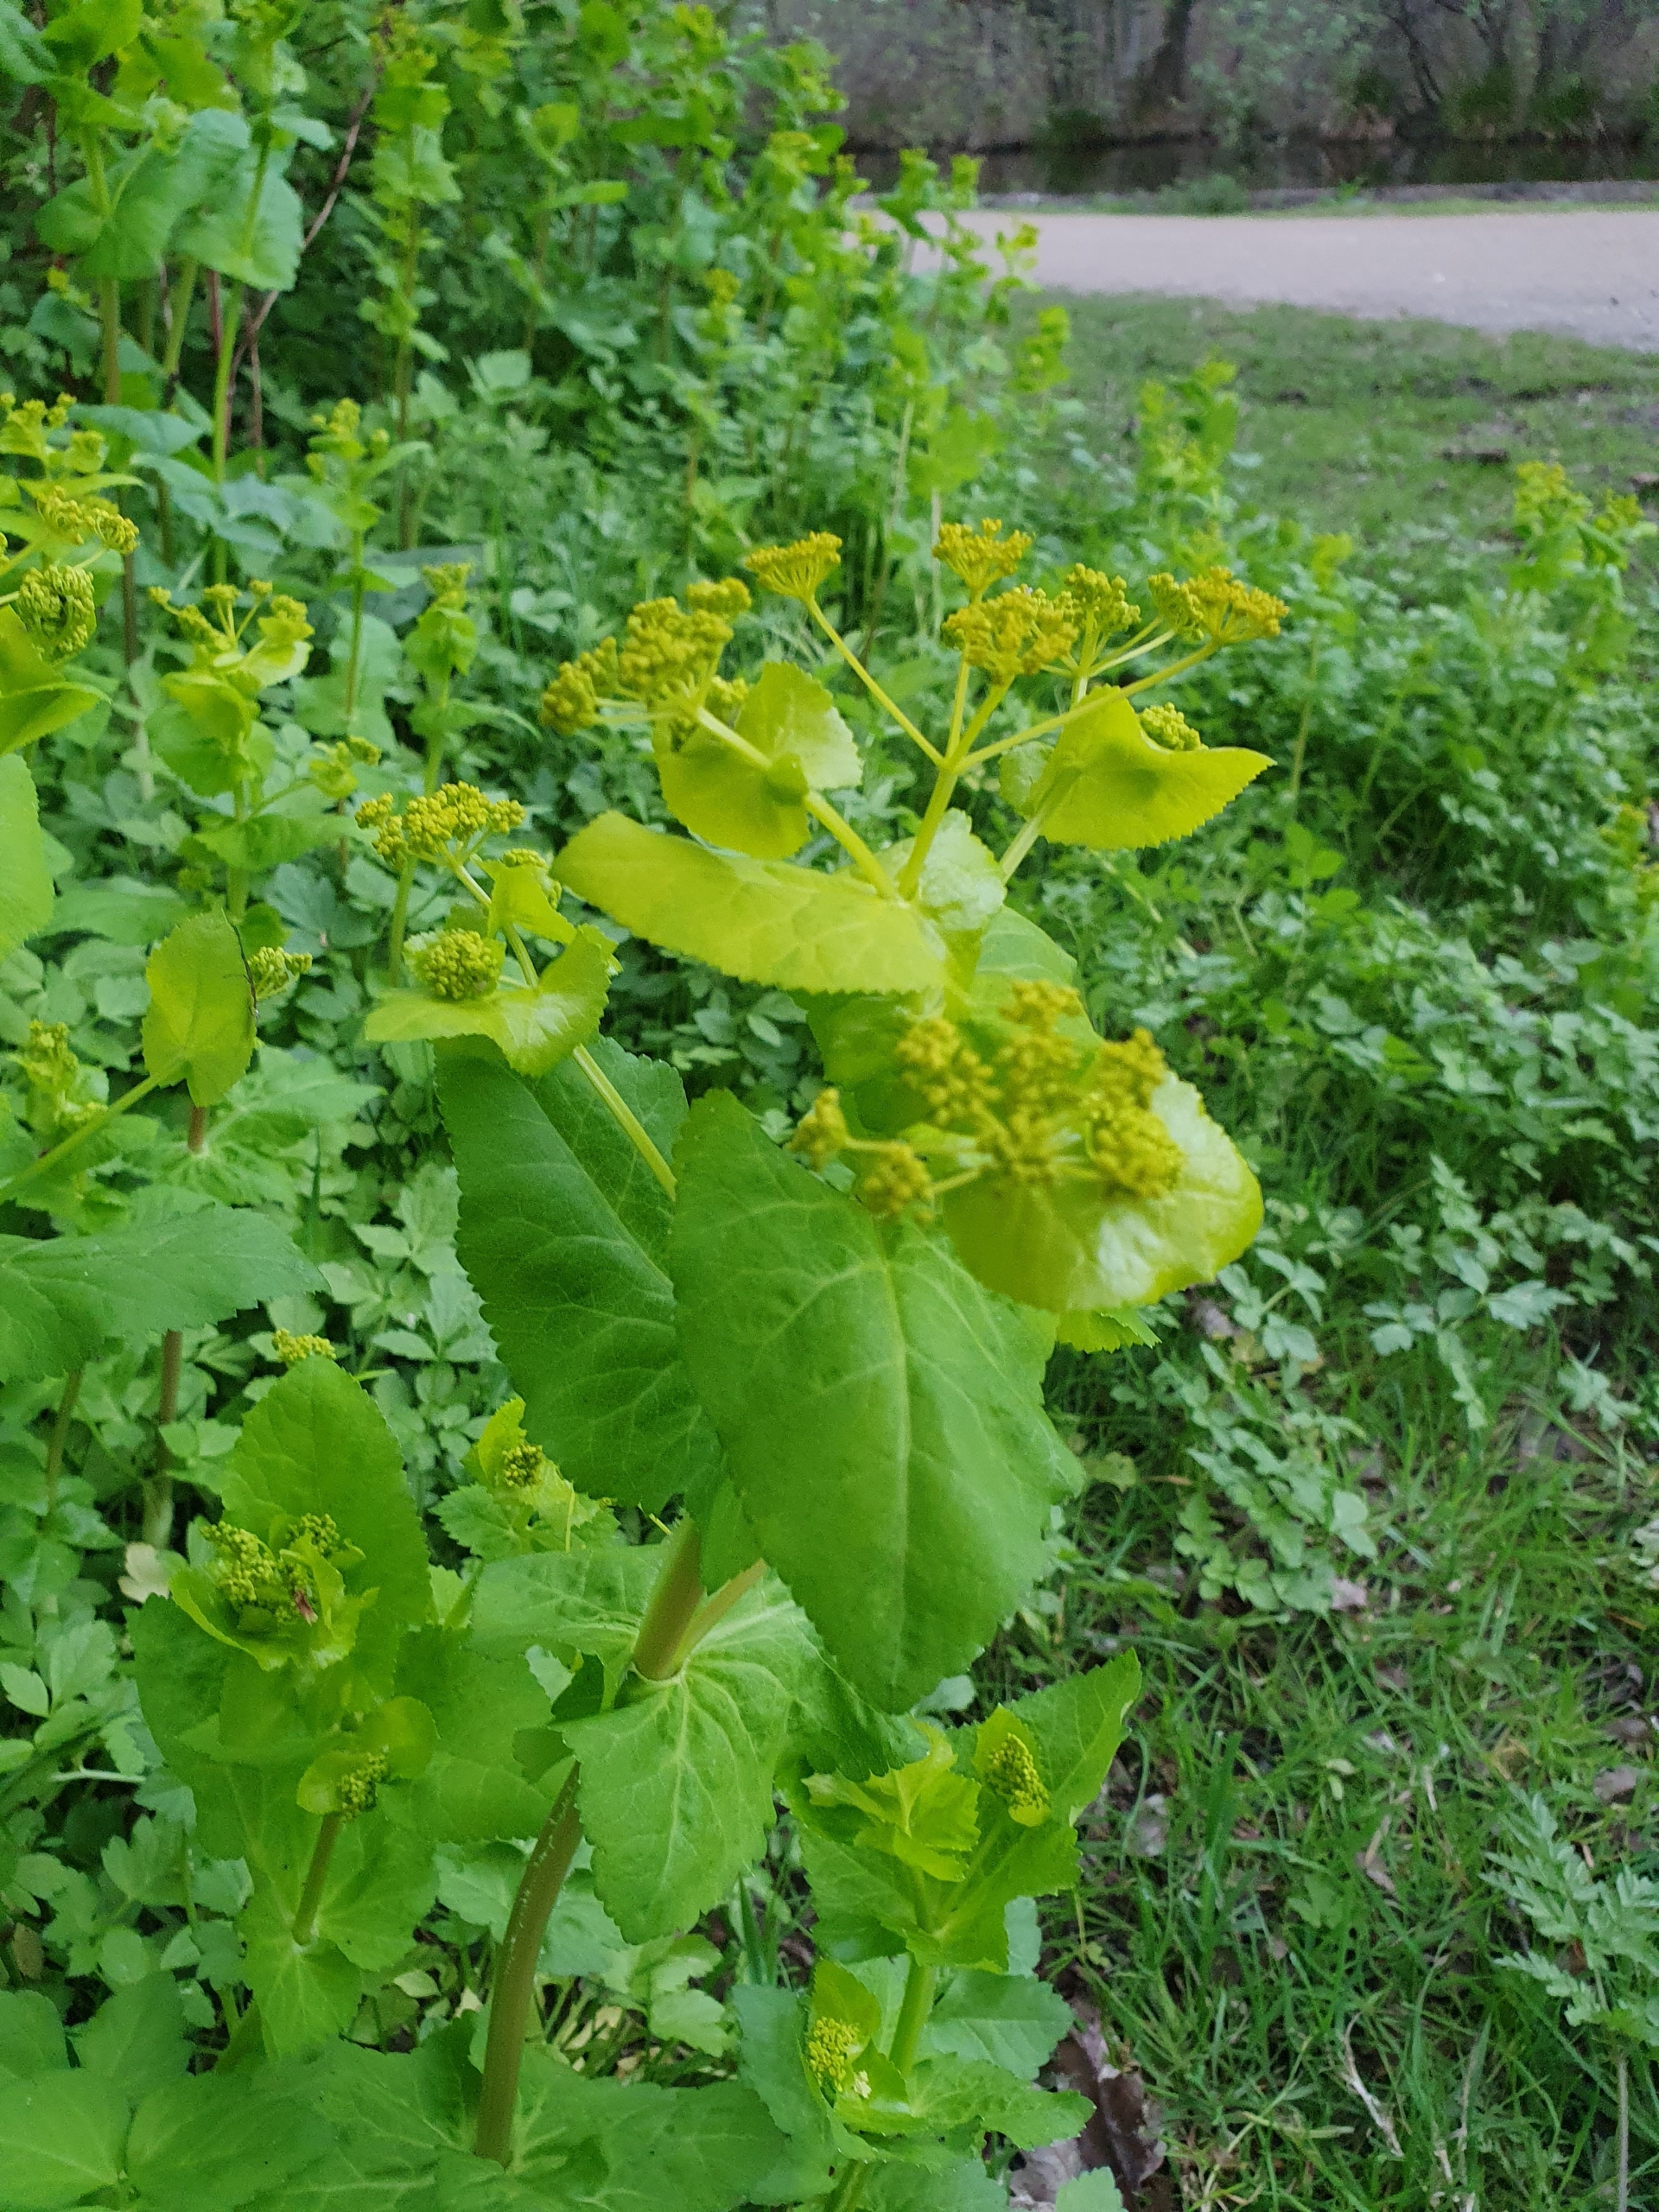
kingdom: Plantae
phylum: Tracheophyta
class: Magnoliopsida
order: Apiales
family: Apiaceae
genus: Smyrnium
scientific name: Smyrnium perfoliatum
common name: Lundgylden
